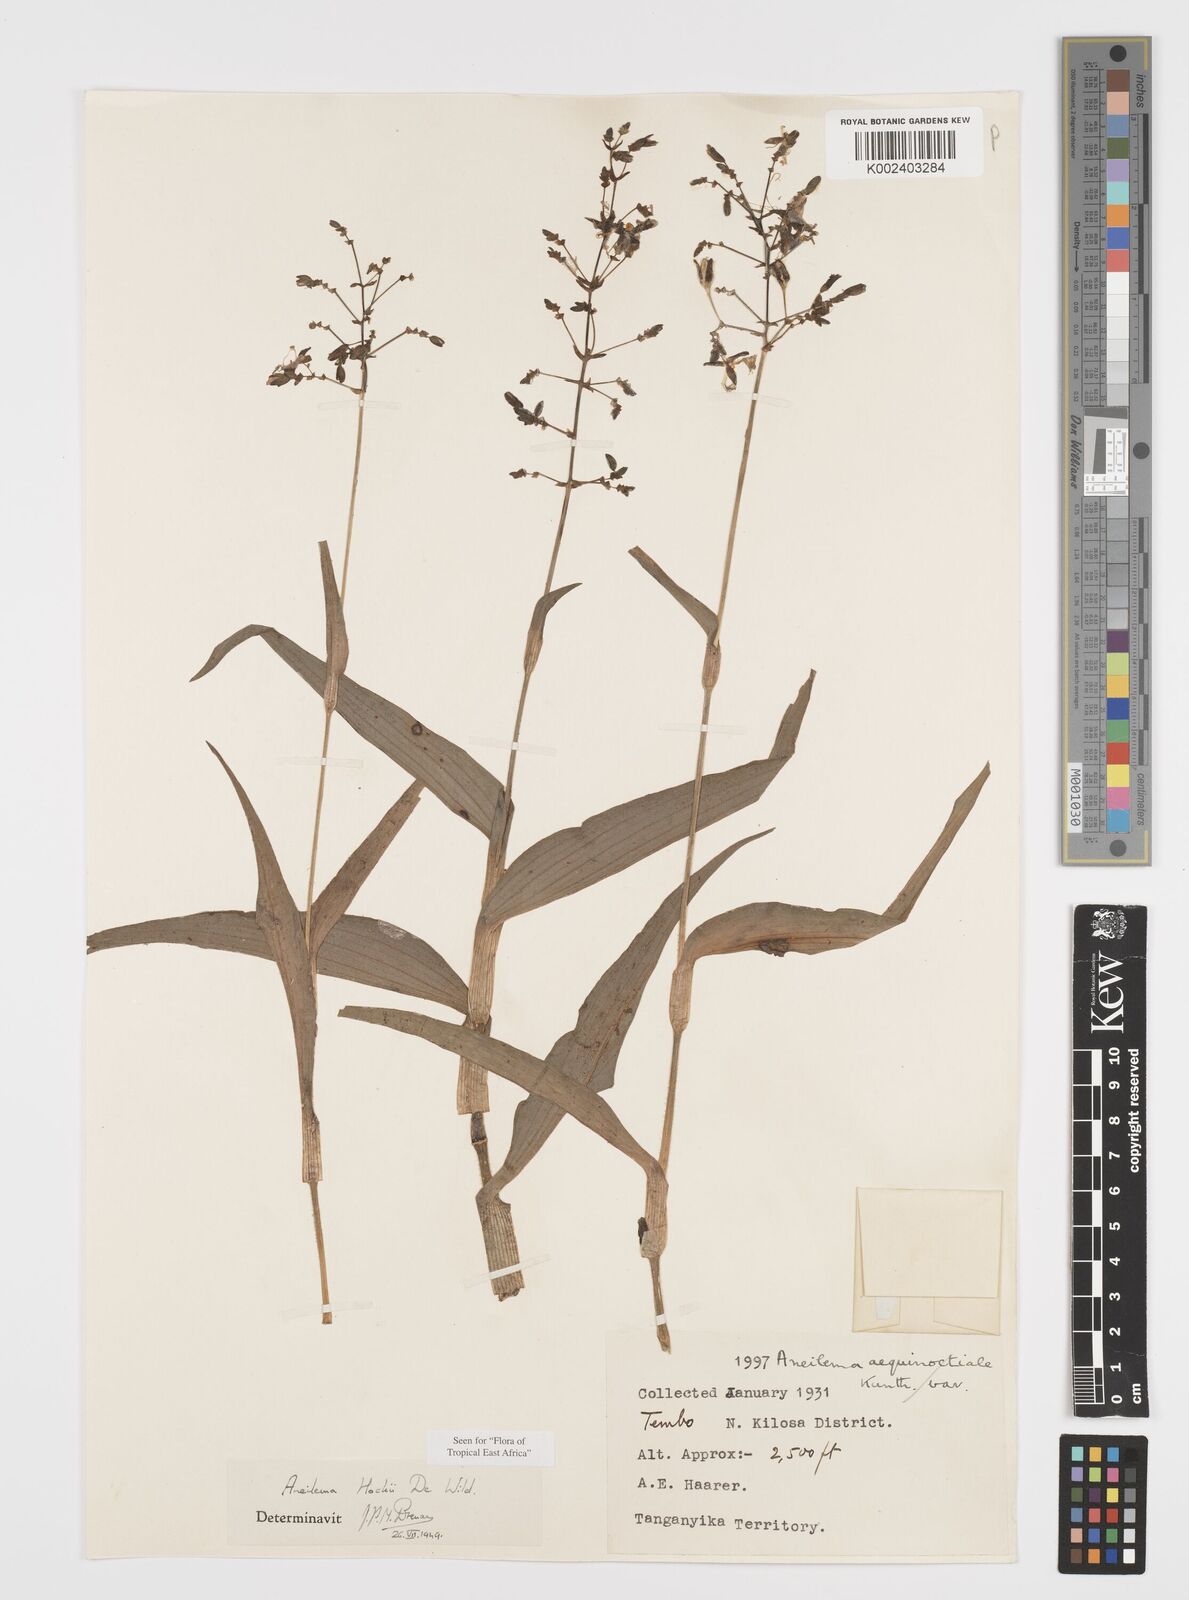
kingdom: Plantae
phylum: Tracheophyta
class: Liliopsida
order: Commelinales
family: Commelinaceae
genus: Aneilema
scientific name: Aneilema hockii
